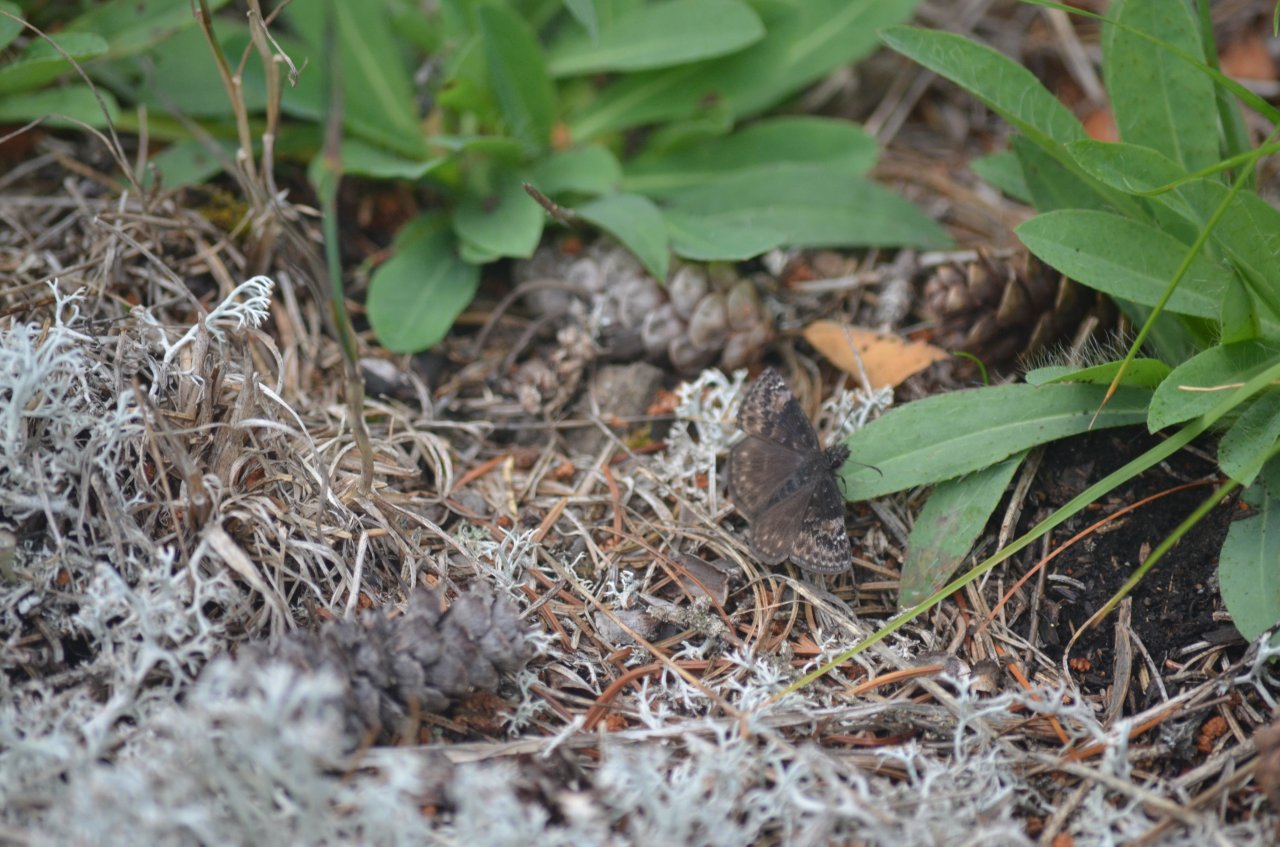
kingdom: Animalia
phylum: Arthropoda
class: Insecta
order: Lepidoptera
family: Hesperiidae
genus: Gesta
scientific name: Gesta
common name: Columbine Duskywing
